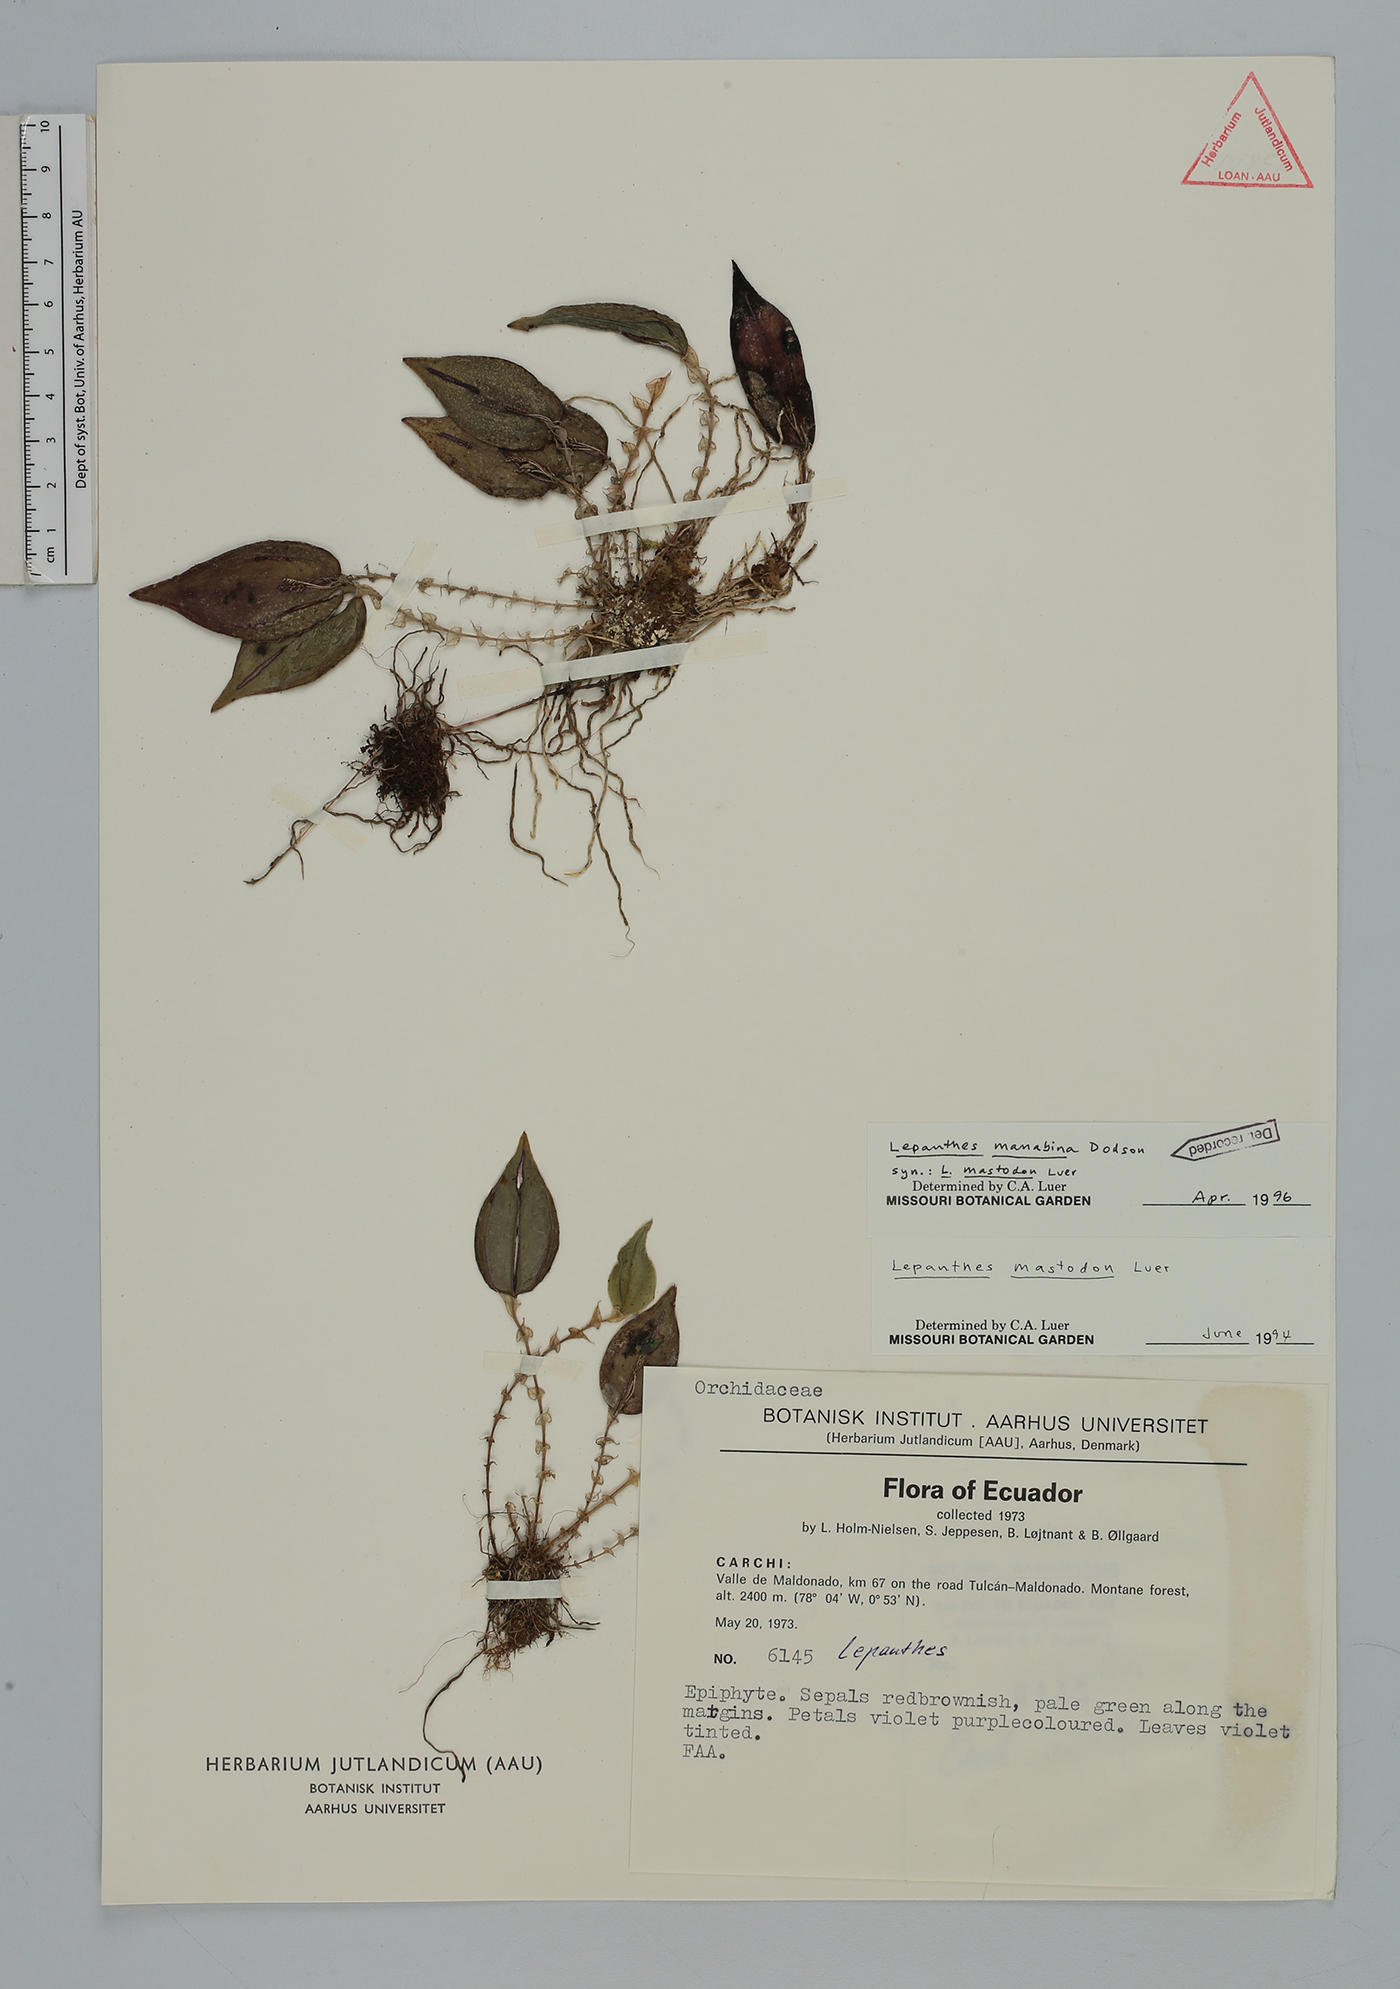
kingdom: Plantae
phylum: Tracheophyta
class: Liliopsida
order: Asparagales
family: Orchidaceae
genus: Lepanthes
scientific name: Lepanthes manabina
